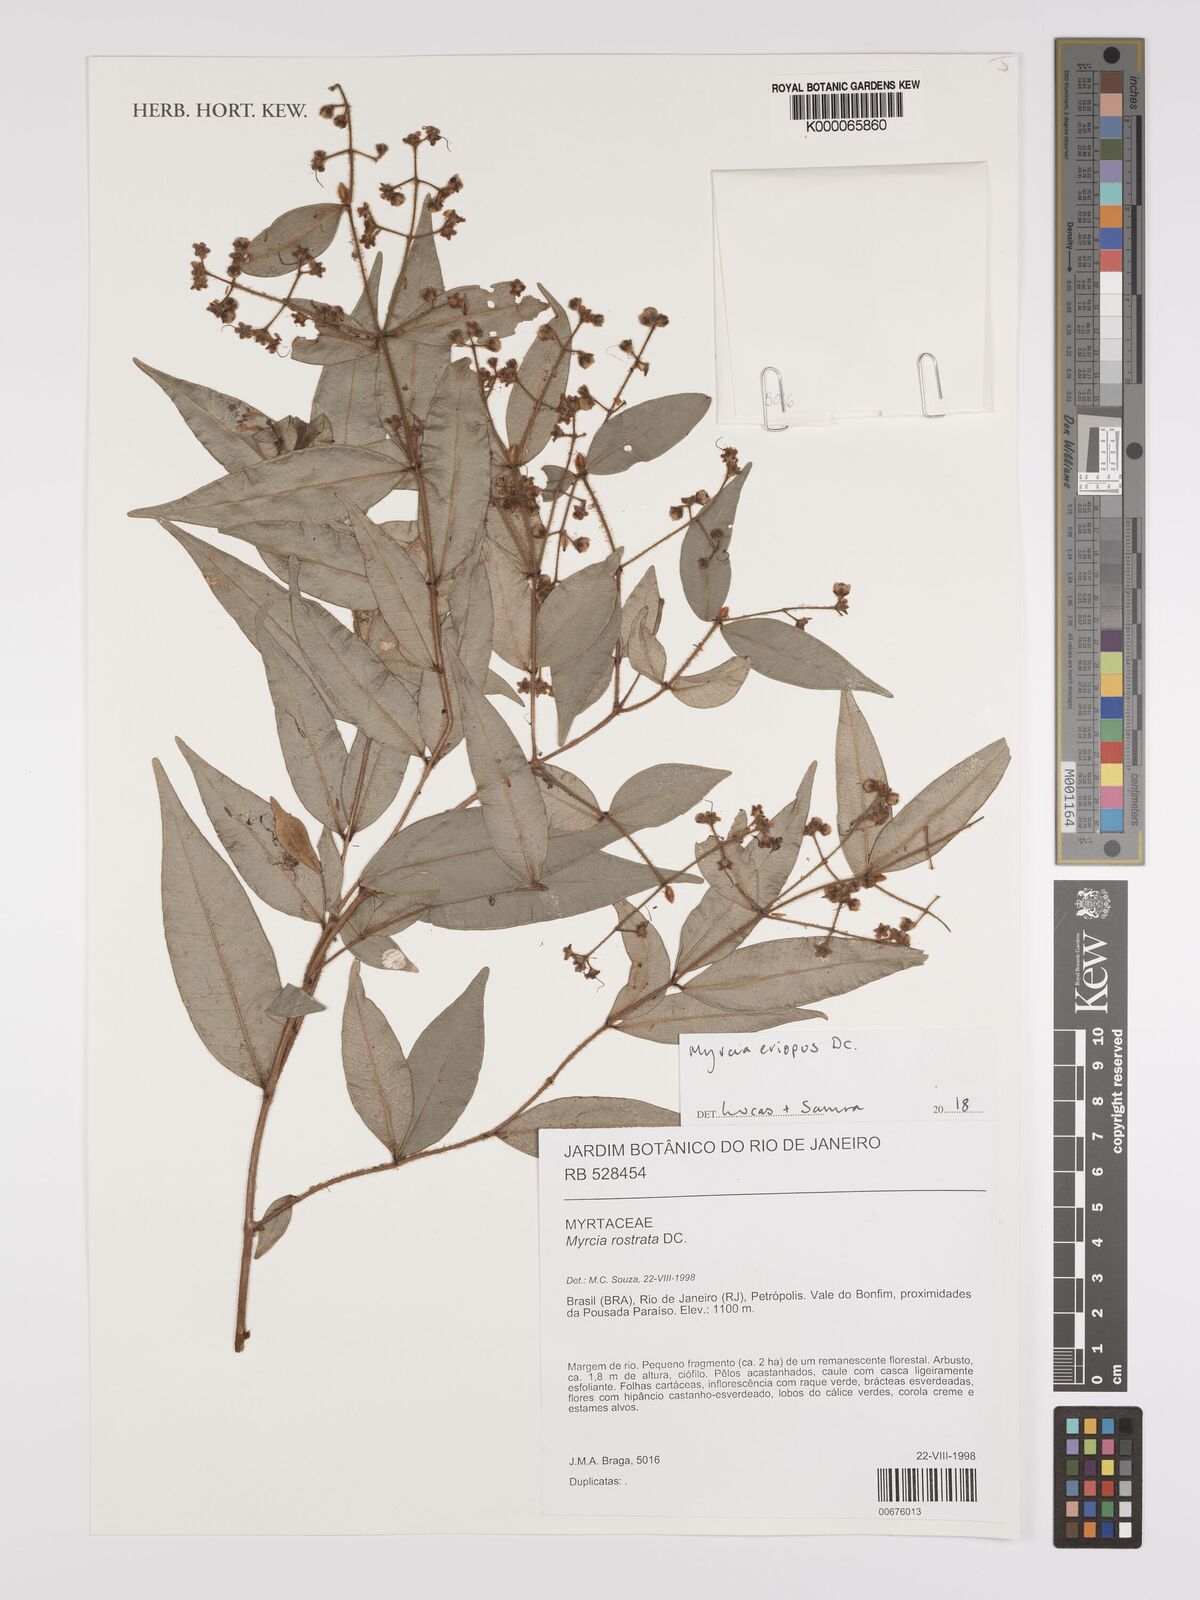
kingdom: Plantae
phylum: Tracheophyta
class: Magnoliopsida
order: Myrtales
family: Myrtaceae
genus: Myrcia
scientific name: Myrcia eriopus
